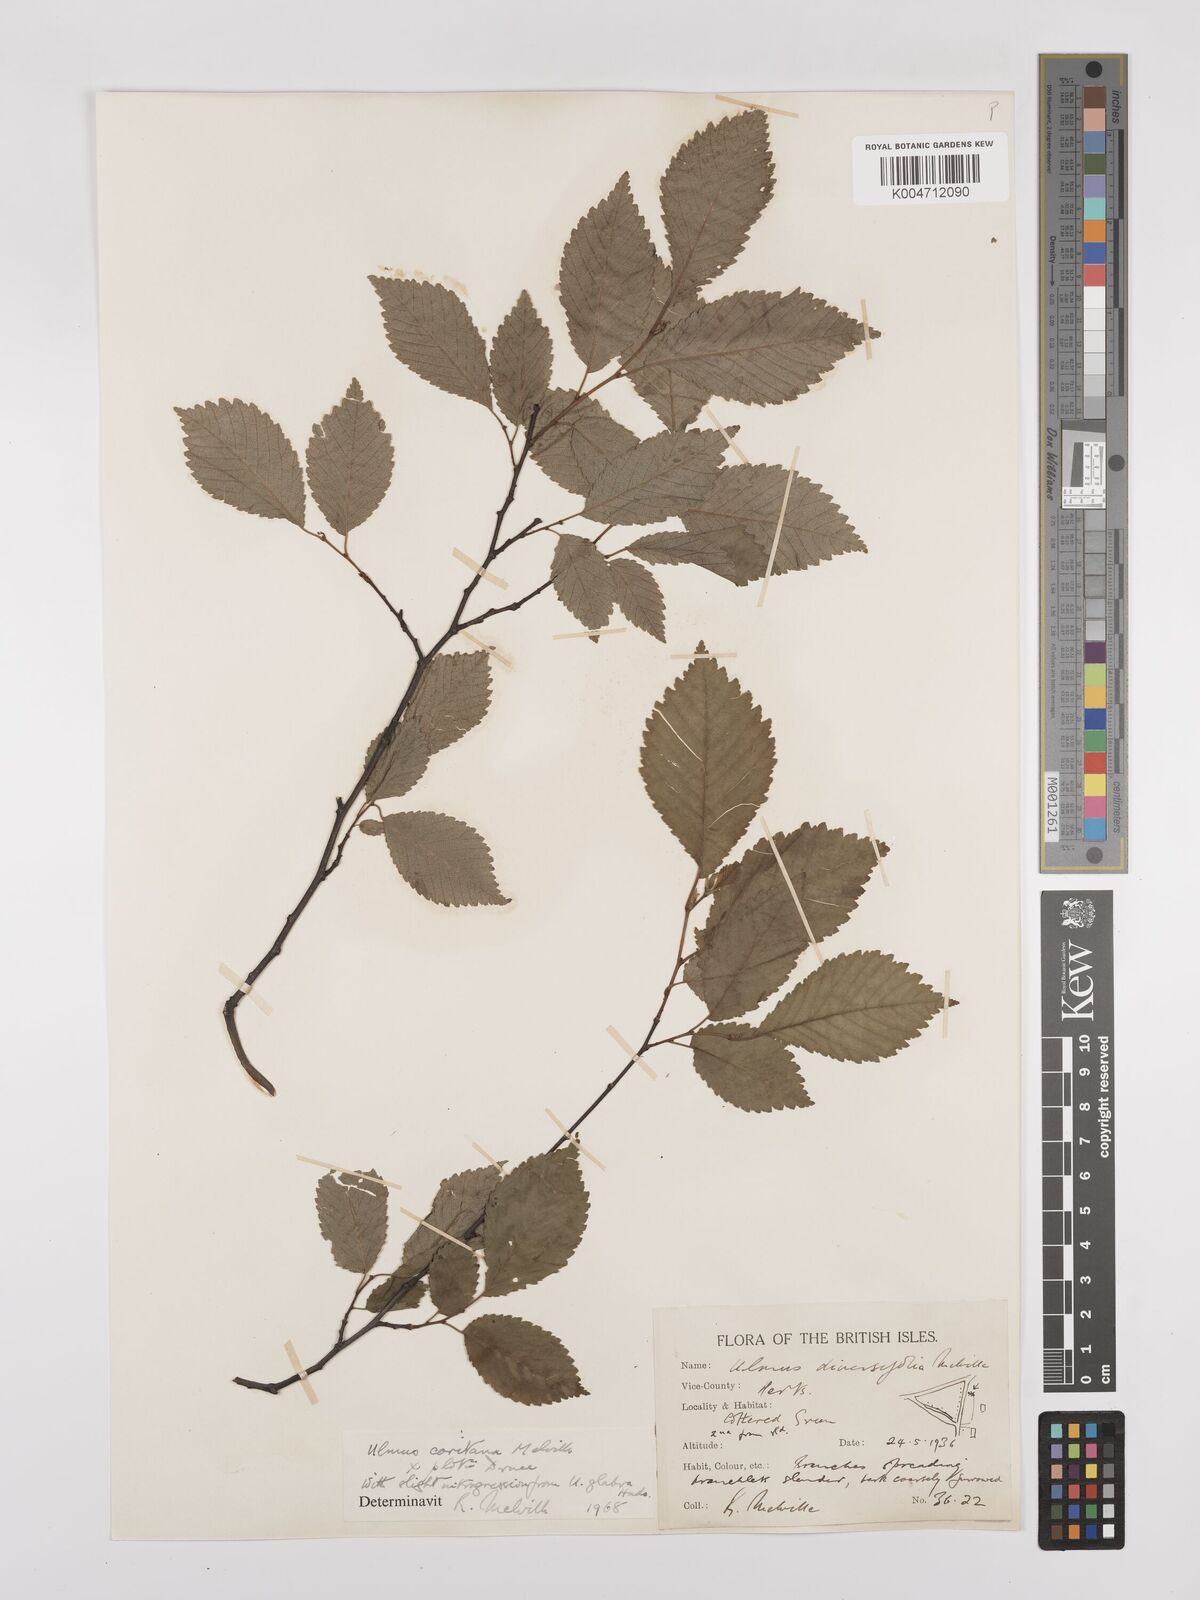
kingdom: Plantae
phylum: Tracheophyta
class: Magnoliopsida
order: Rosales
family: Ulmaceae
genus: Ulmus
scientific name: Ulmus minor
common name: Small-leaved elm
